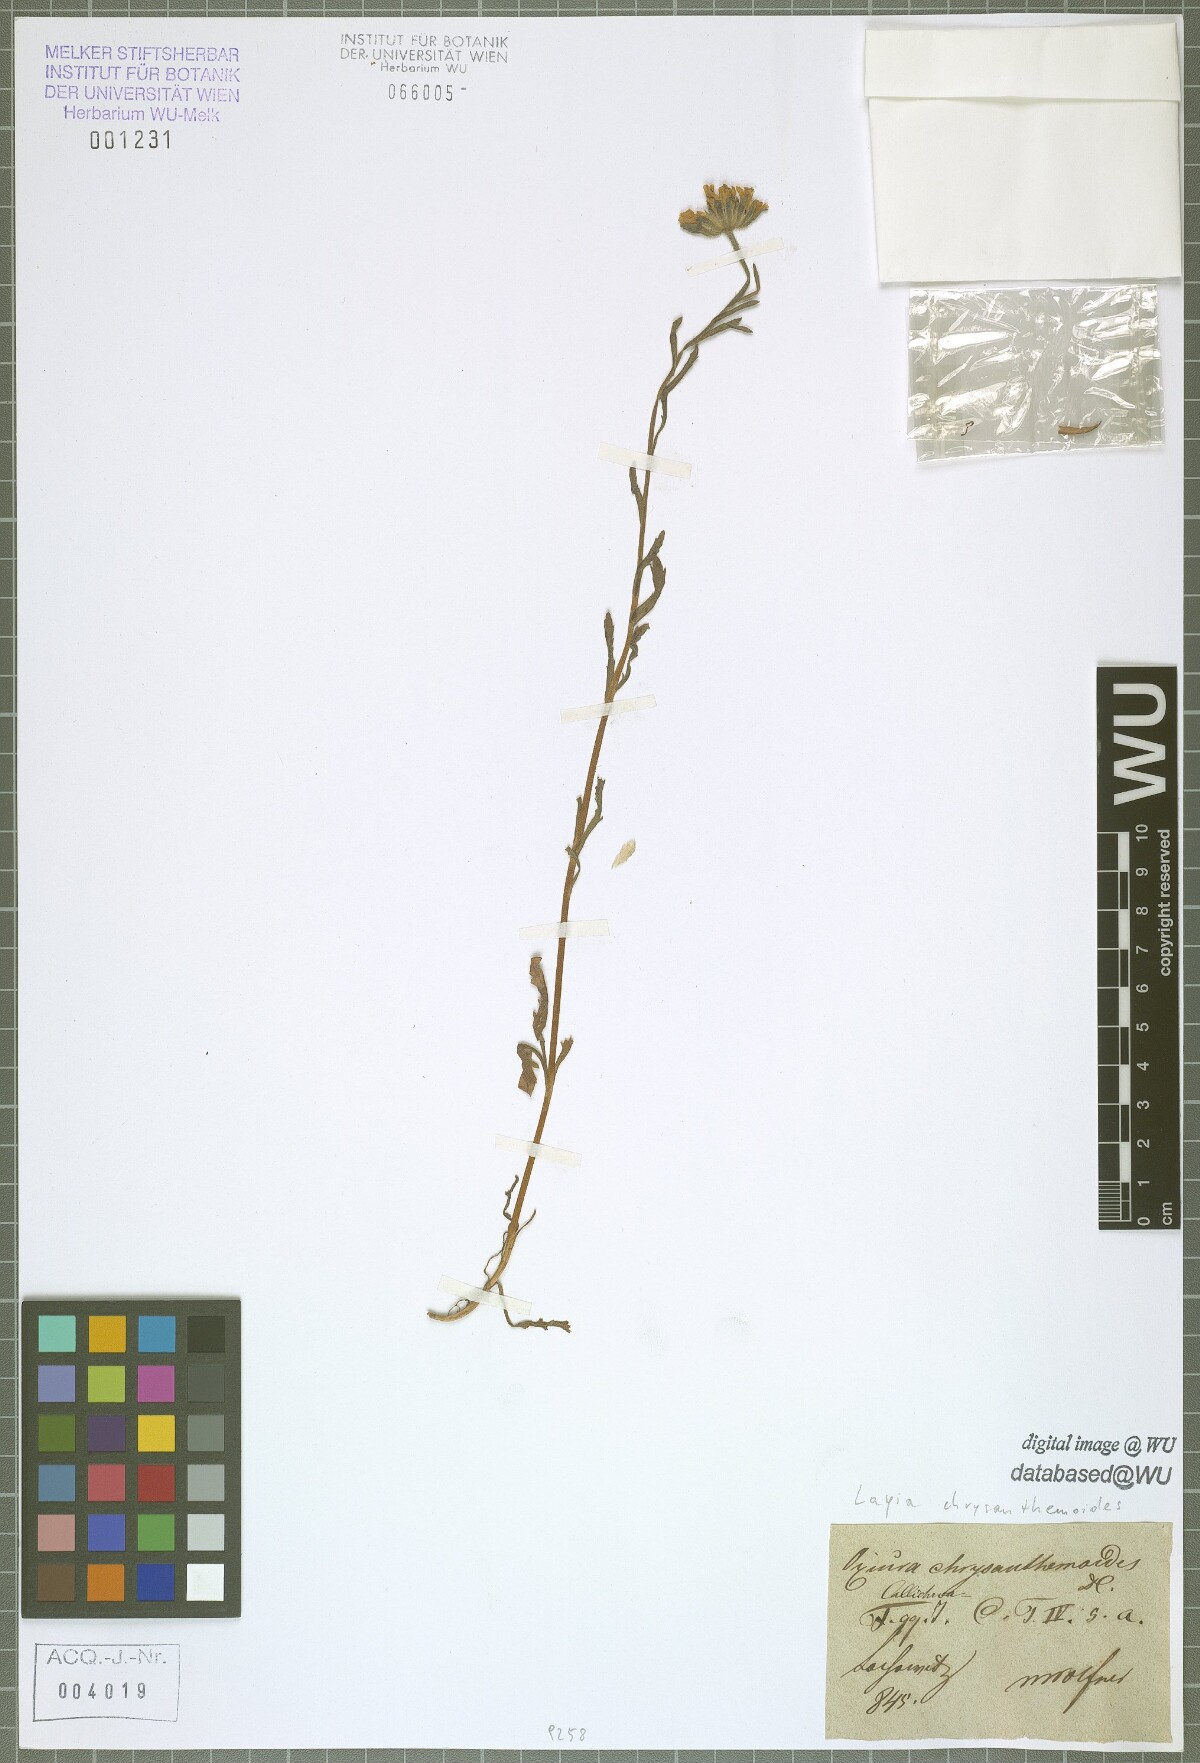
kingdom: Plantae
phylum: Tracheophyta
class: Magnoliopsida
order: Asterales
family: Asteraceae
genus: Layia
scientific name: Layia chrysanthemoides
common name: Smooth layia
